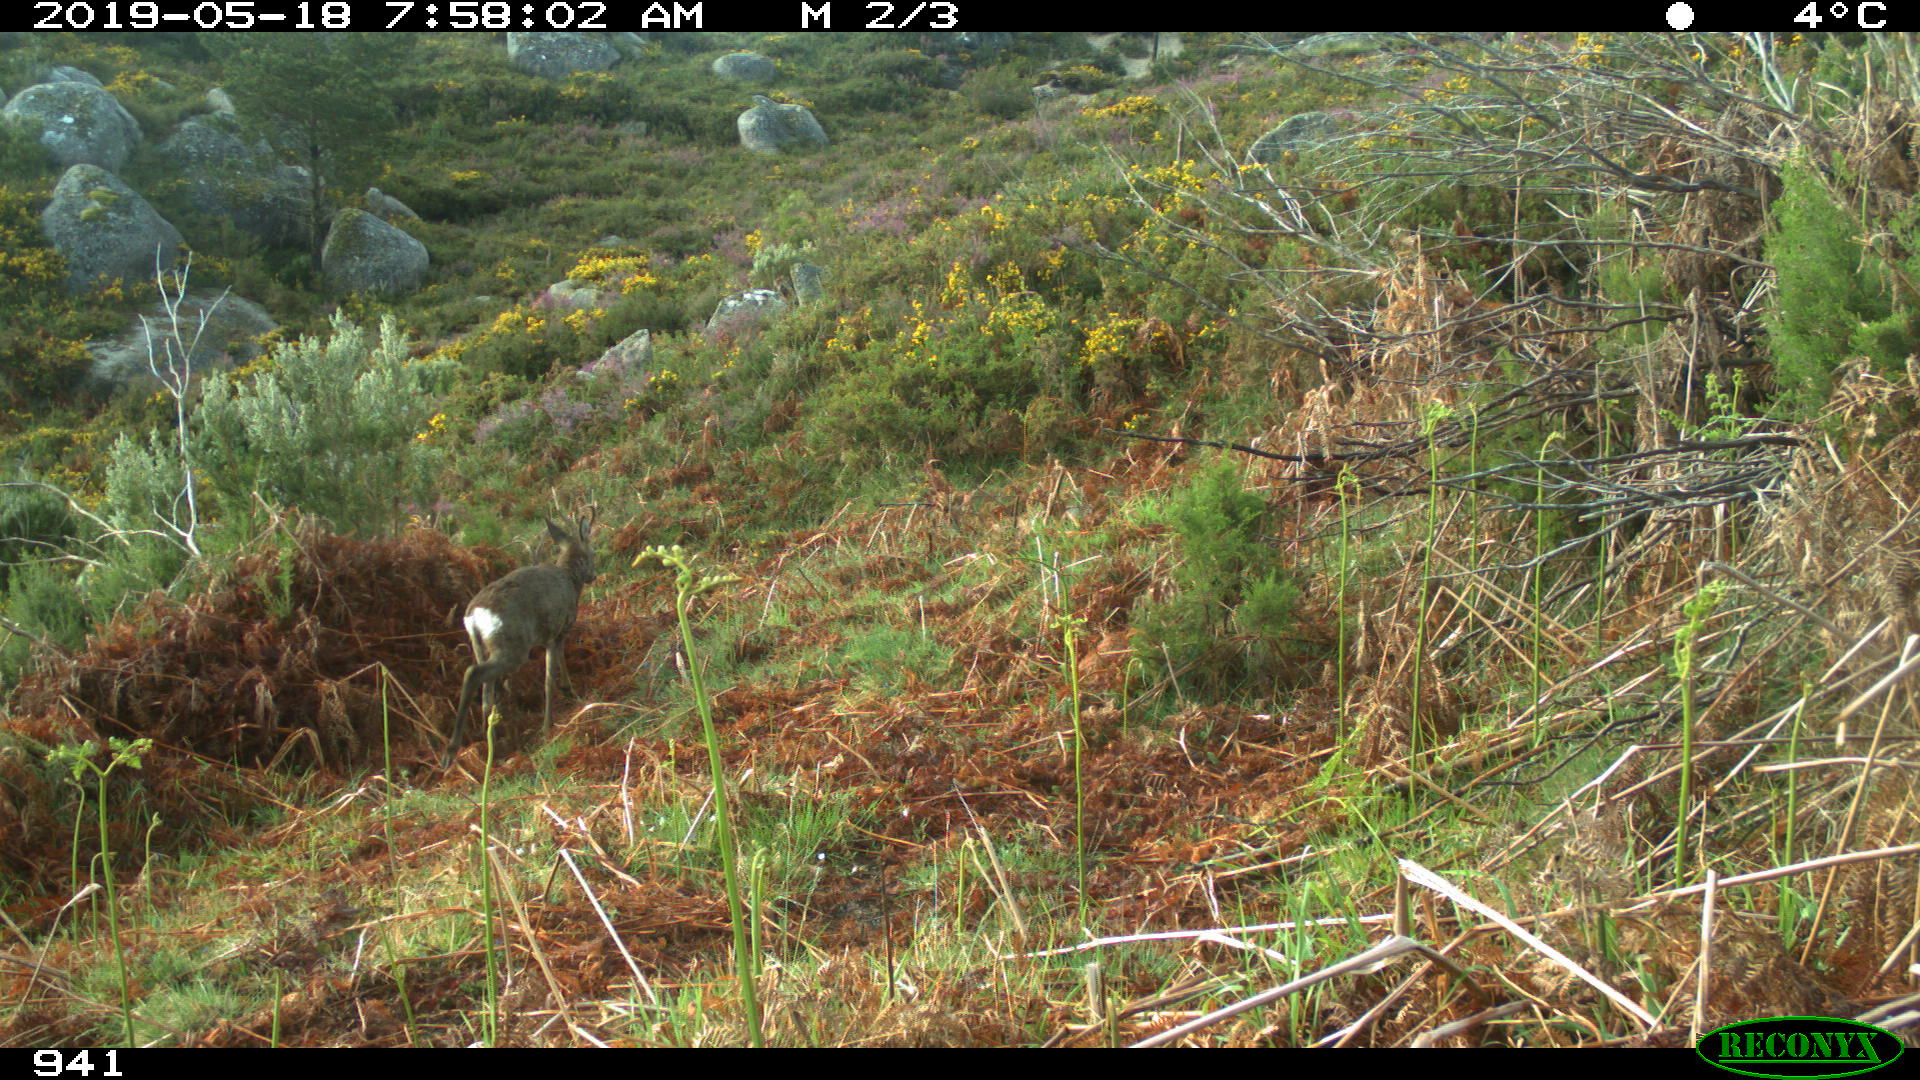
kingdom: Animalia
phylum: Chordata
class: Mammalia
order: Artiodactyla
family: Cervidae
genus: Capreolus
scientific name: Capreolus capreolus
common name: Western roe deer
